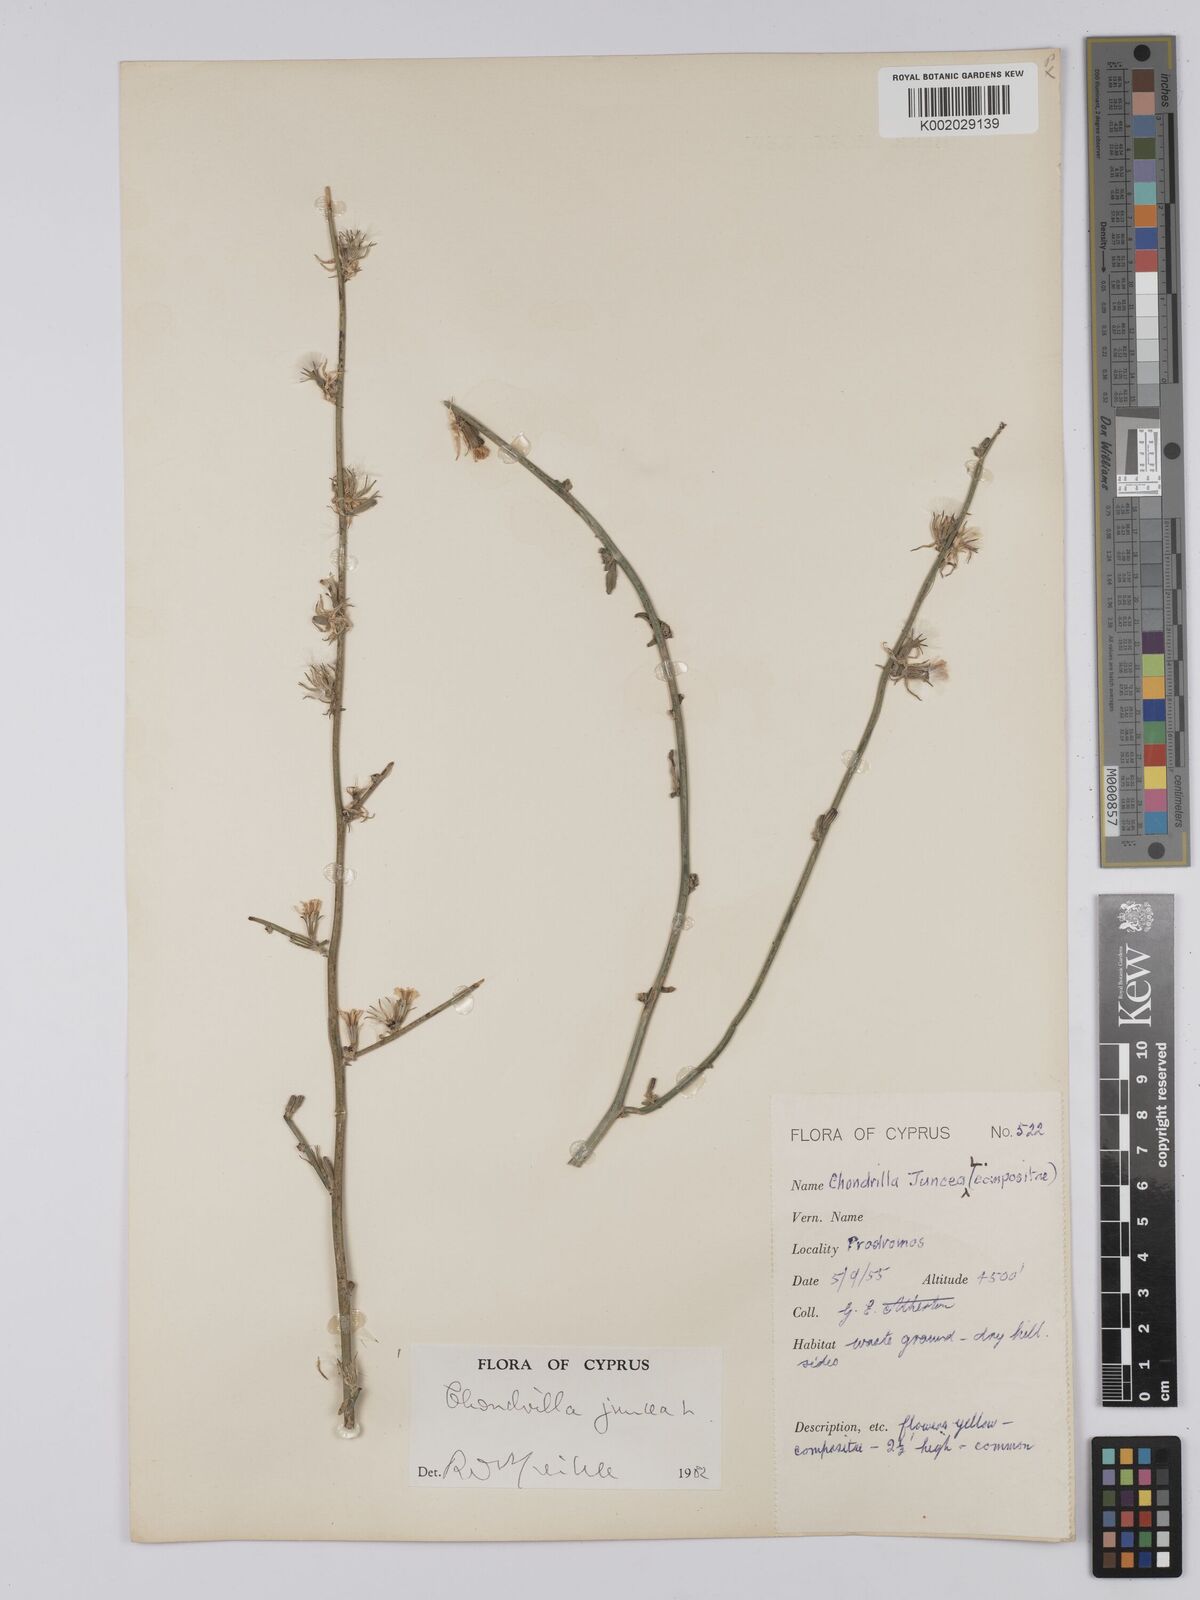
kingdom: Plantae
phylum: Tracheophyta
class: Magnoliopsida
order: Asterales
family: Asteraceae
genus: Chondrilla
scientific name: Chondrilla juncea
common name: Skeleton weed
